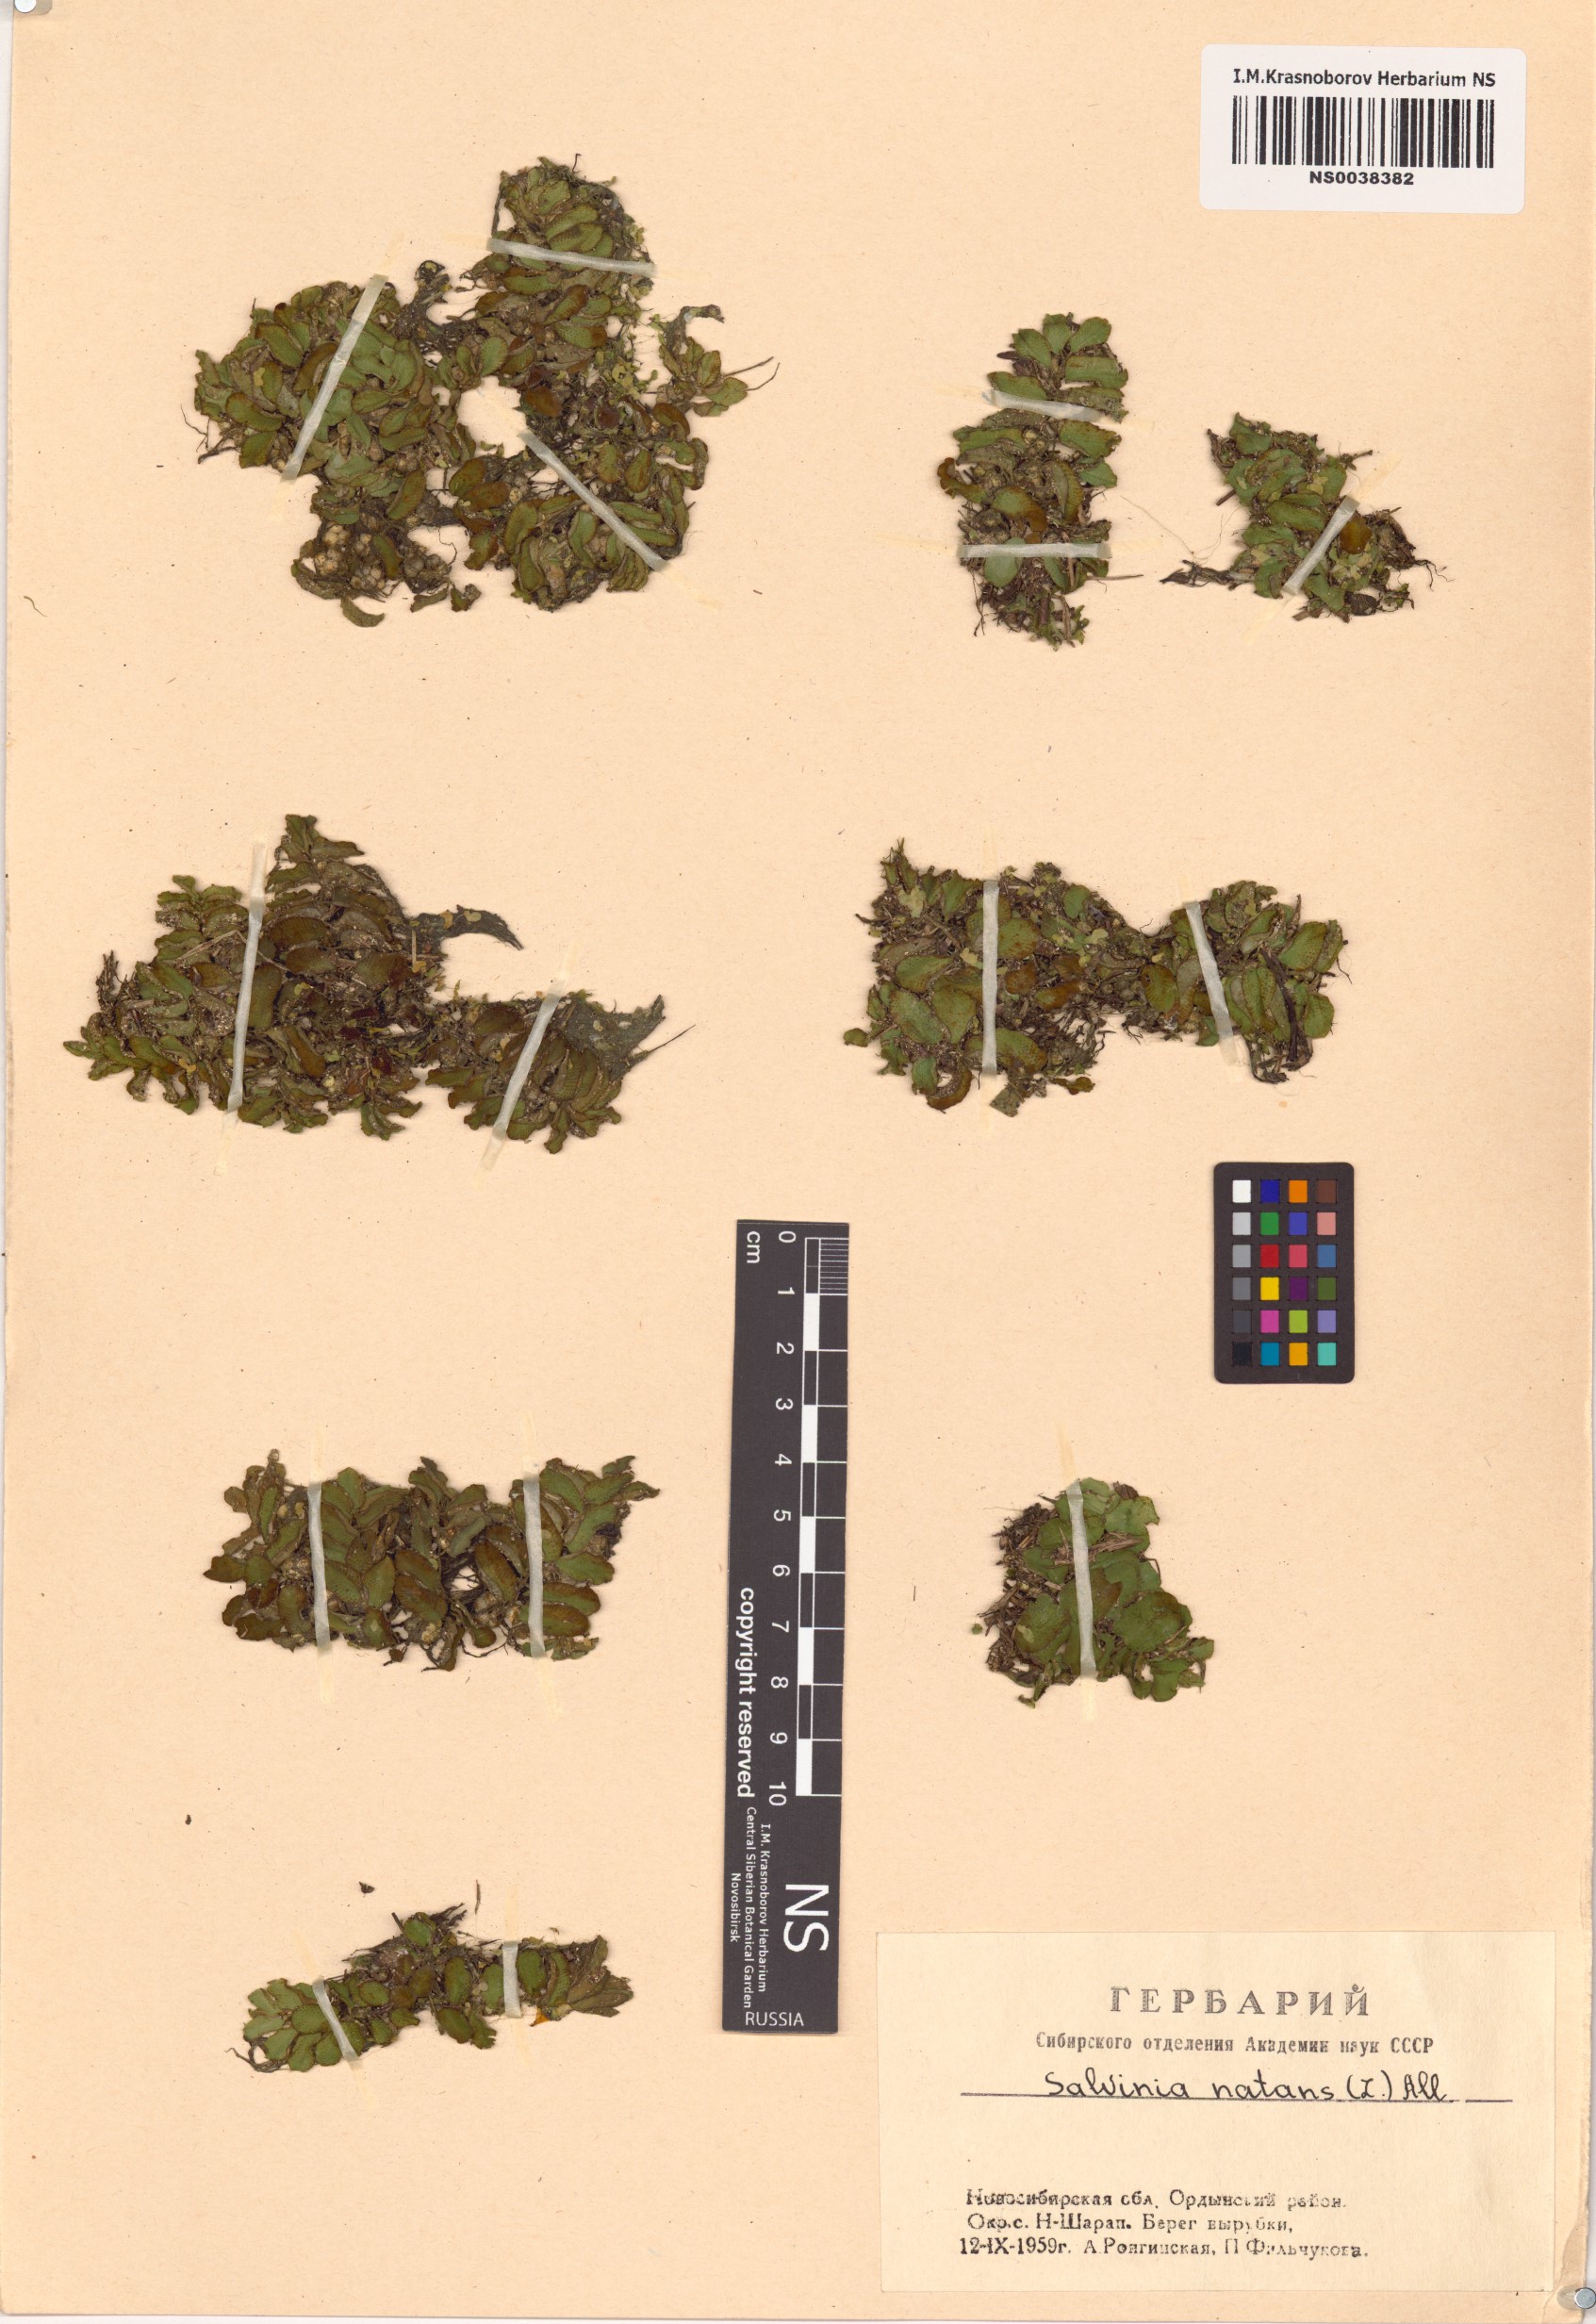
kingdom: Plantae
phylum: Tracheophyta
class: Polypodiopsida
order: Salviniales
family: Salviniaceae
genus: Salvinia
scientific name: Salvinia natans
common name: Floating fern
